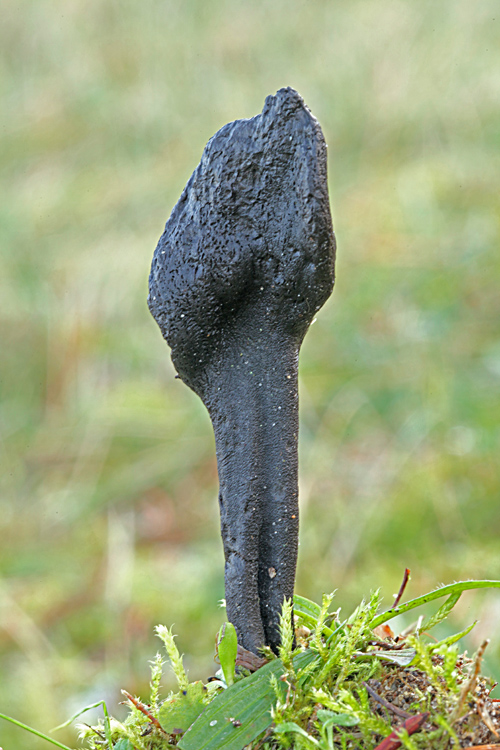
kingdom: Fungi
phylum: Ascomycota
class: Geoglossomycetes
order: Geoglossales
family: Geoglossaceae
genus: Geoglossum
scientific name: Geoglossum cookeianum
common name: bred jordtunge
